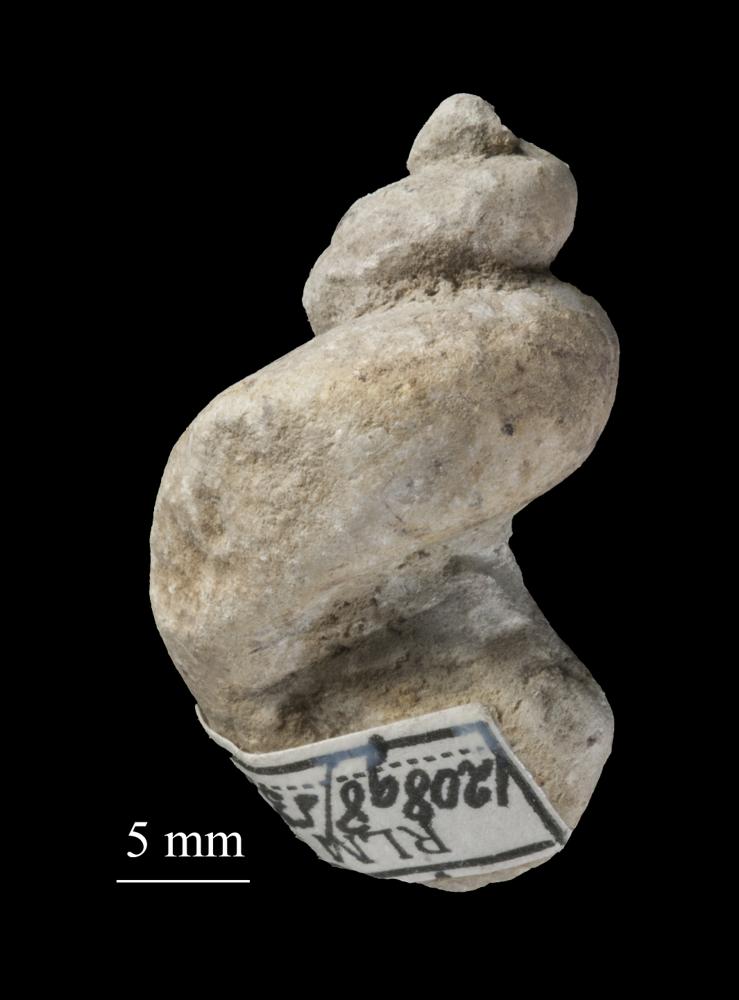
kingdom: Animalia
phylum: Mollusca
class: Gastropoda
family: Lophospiridae
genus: Loxoplocus
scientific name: Loxoplocus Worthenia vermetus
